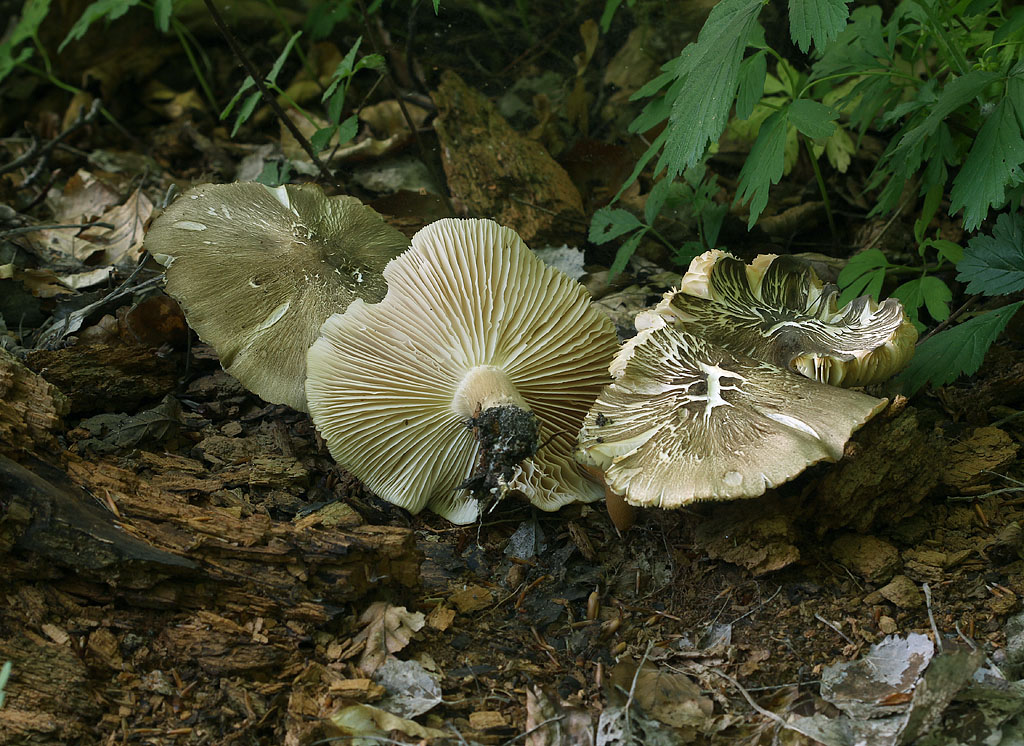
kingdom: Fungi
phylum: Basidiomycota
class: Agaricomycetes
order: Agaricales
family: Tricholomataceae
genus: Megacollybia
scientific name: Megacollybia platyphylla
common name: bredbladet væbnerhat
